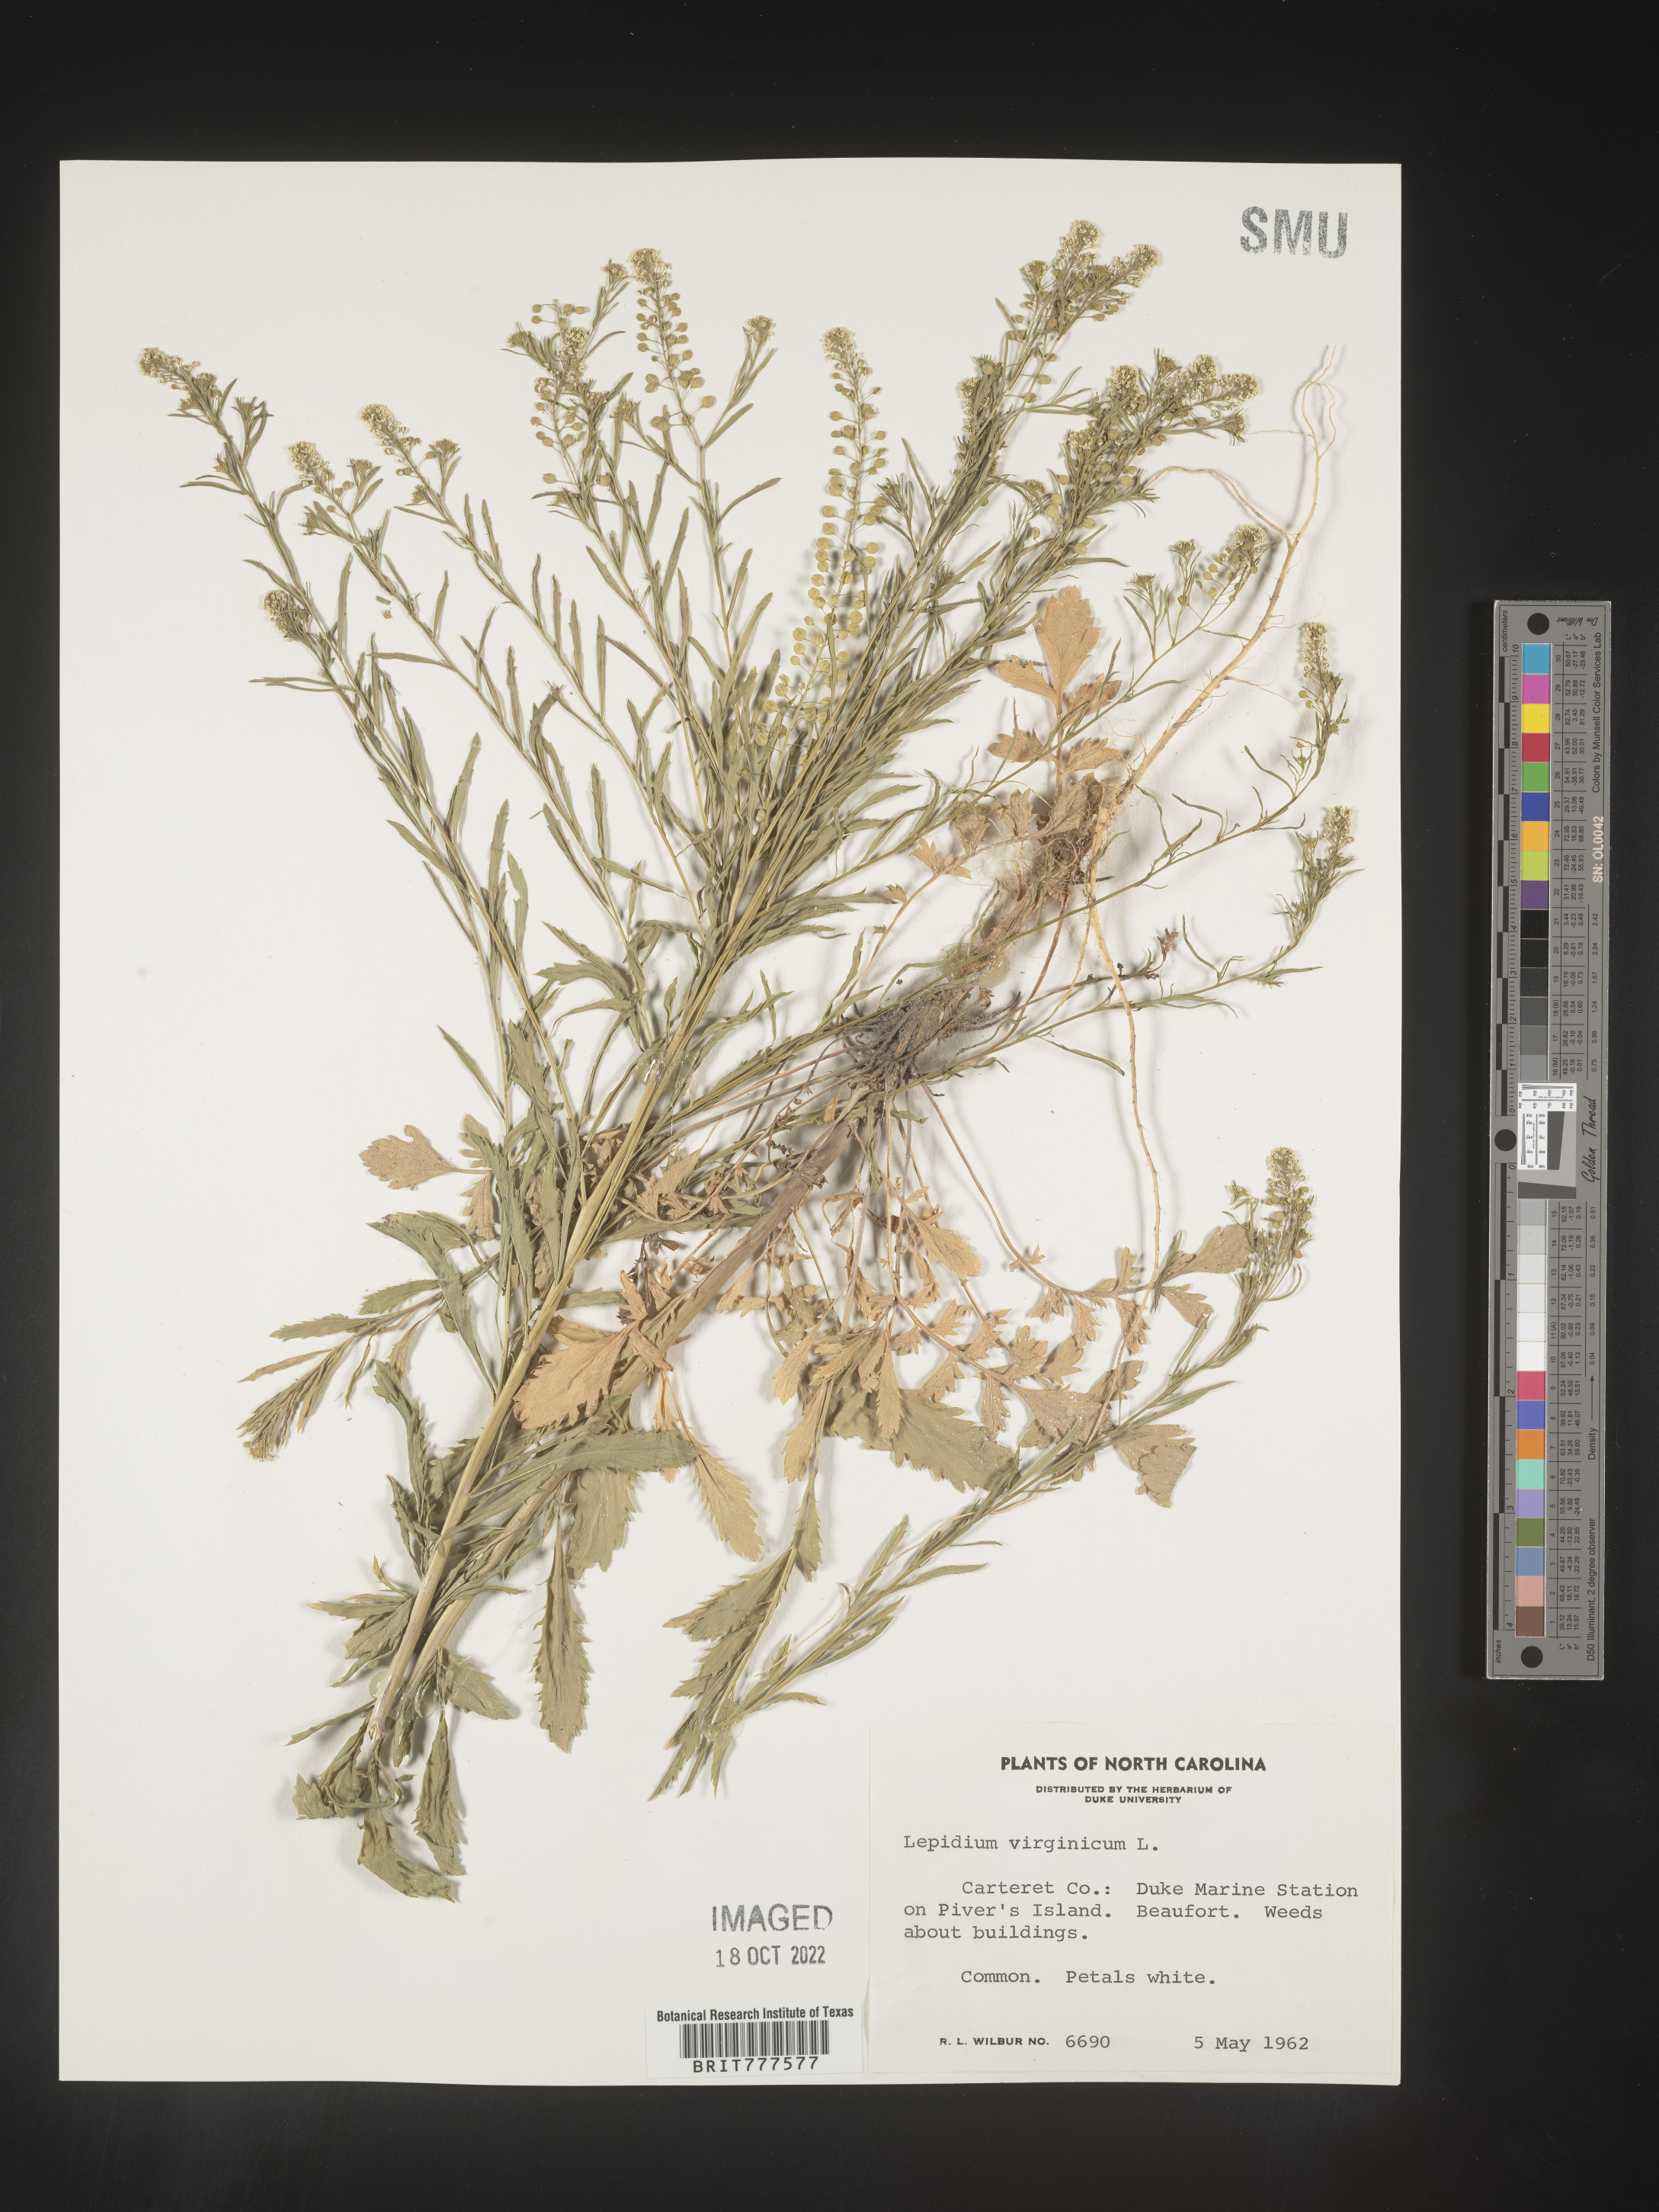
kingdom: Plantae
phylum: Tracheophyta
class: Magnoliopsida
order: Brassicales
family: Brassicaceae
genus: Lepidium
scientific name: Lepidium virginicum
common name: Least pepperwort
